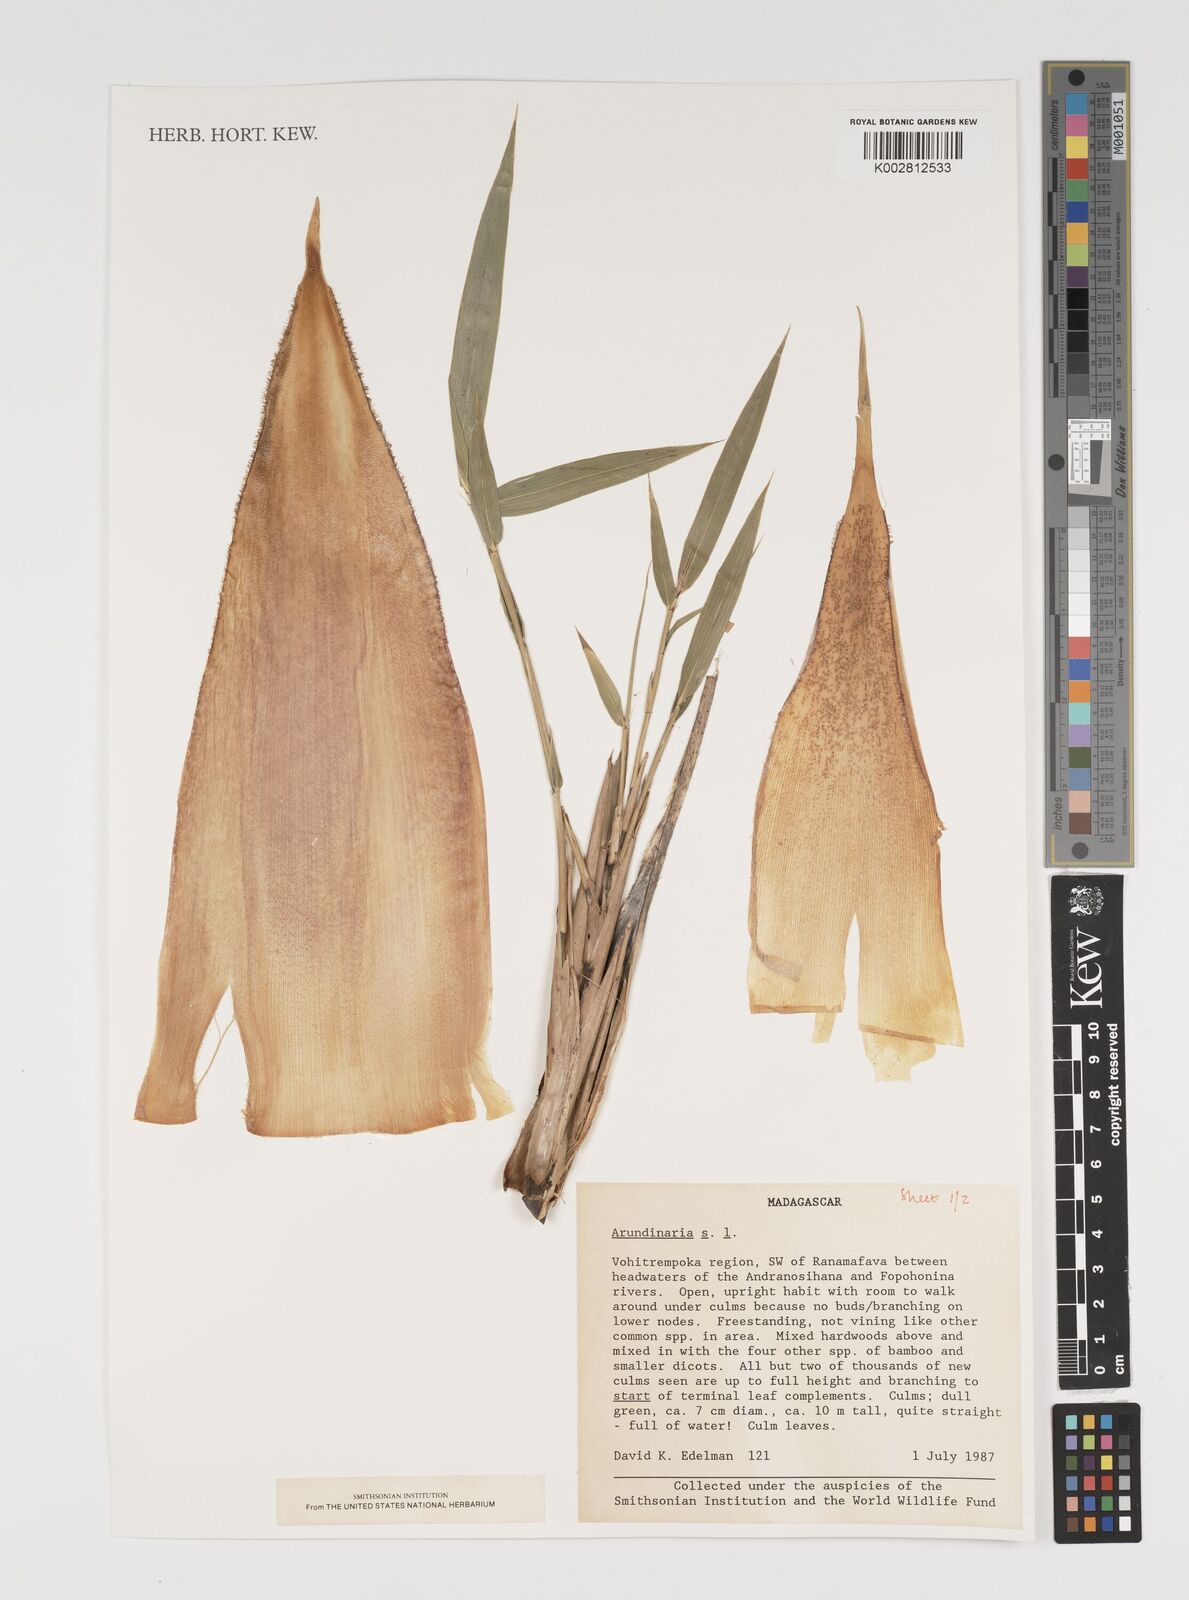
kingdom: Plantae
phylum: Tracheophyta
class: Liliopsida
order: Poales
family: Poaceae
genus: Arundinaria
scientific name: Arundinaria
